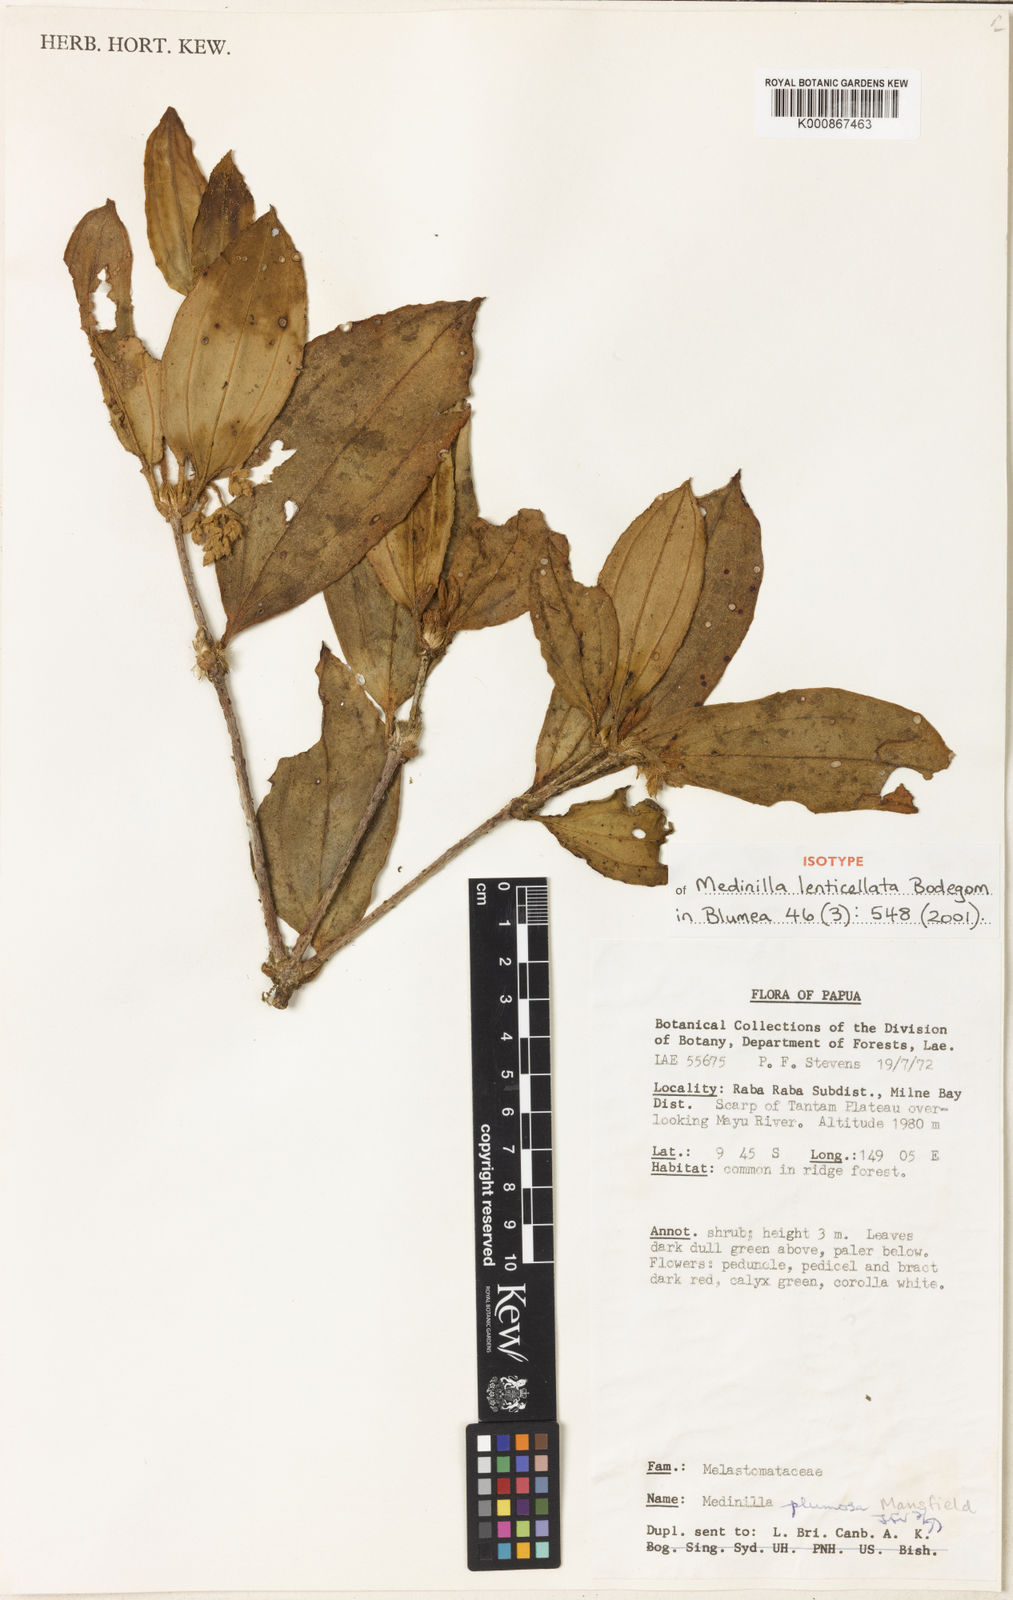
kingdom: Plantae
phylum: Tracheophyta
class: Magnoliopsida
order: Myrtales
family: Melastomataceae
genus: Medinilla
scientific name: Medinilla lenticellata
